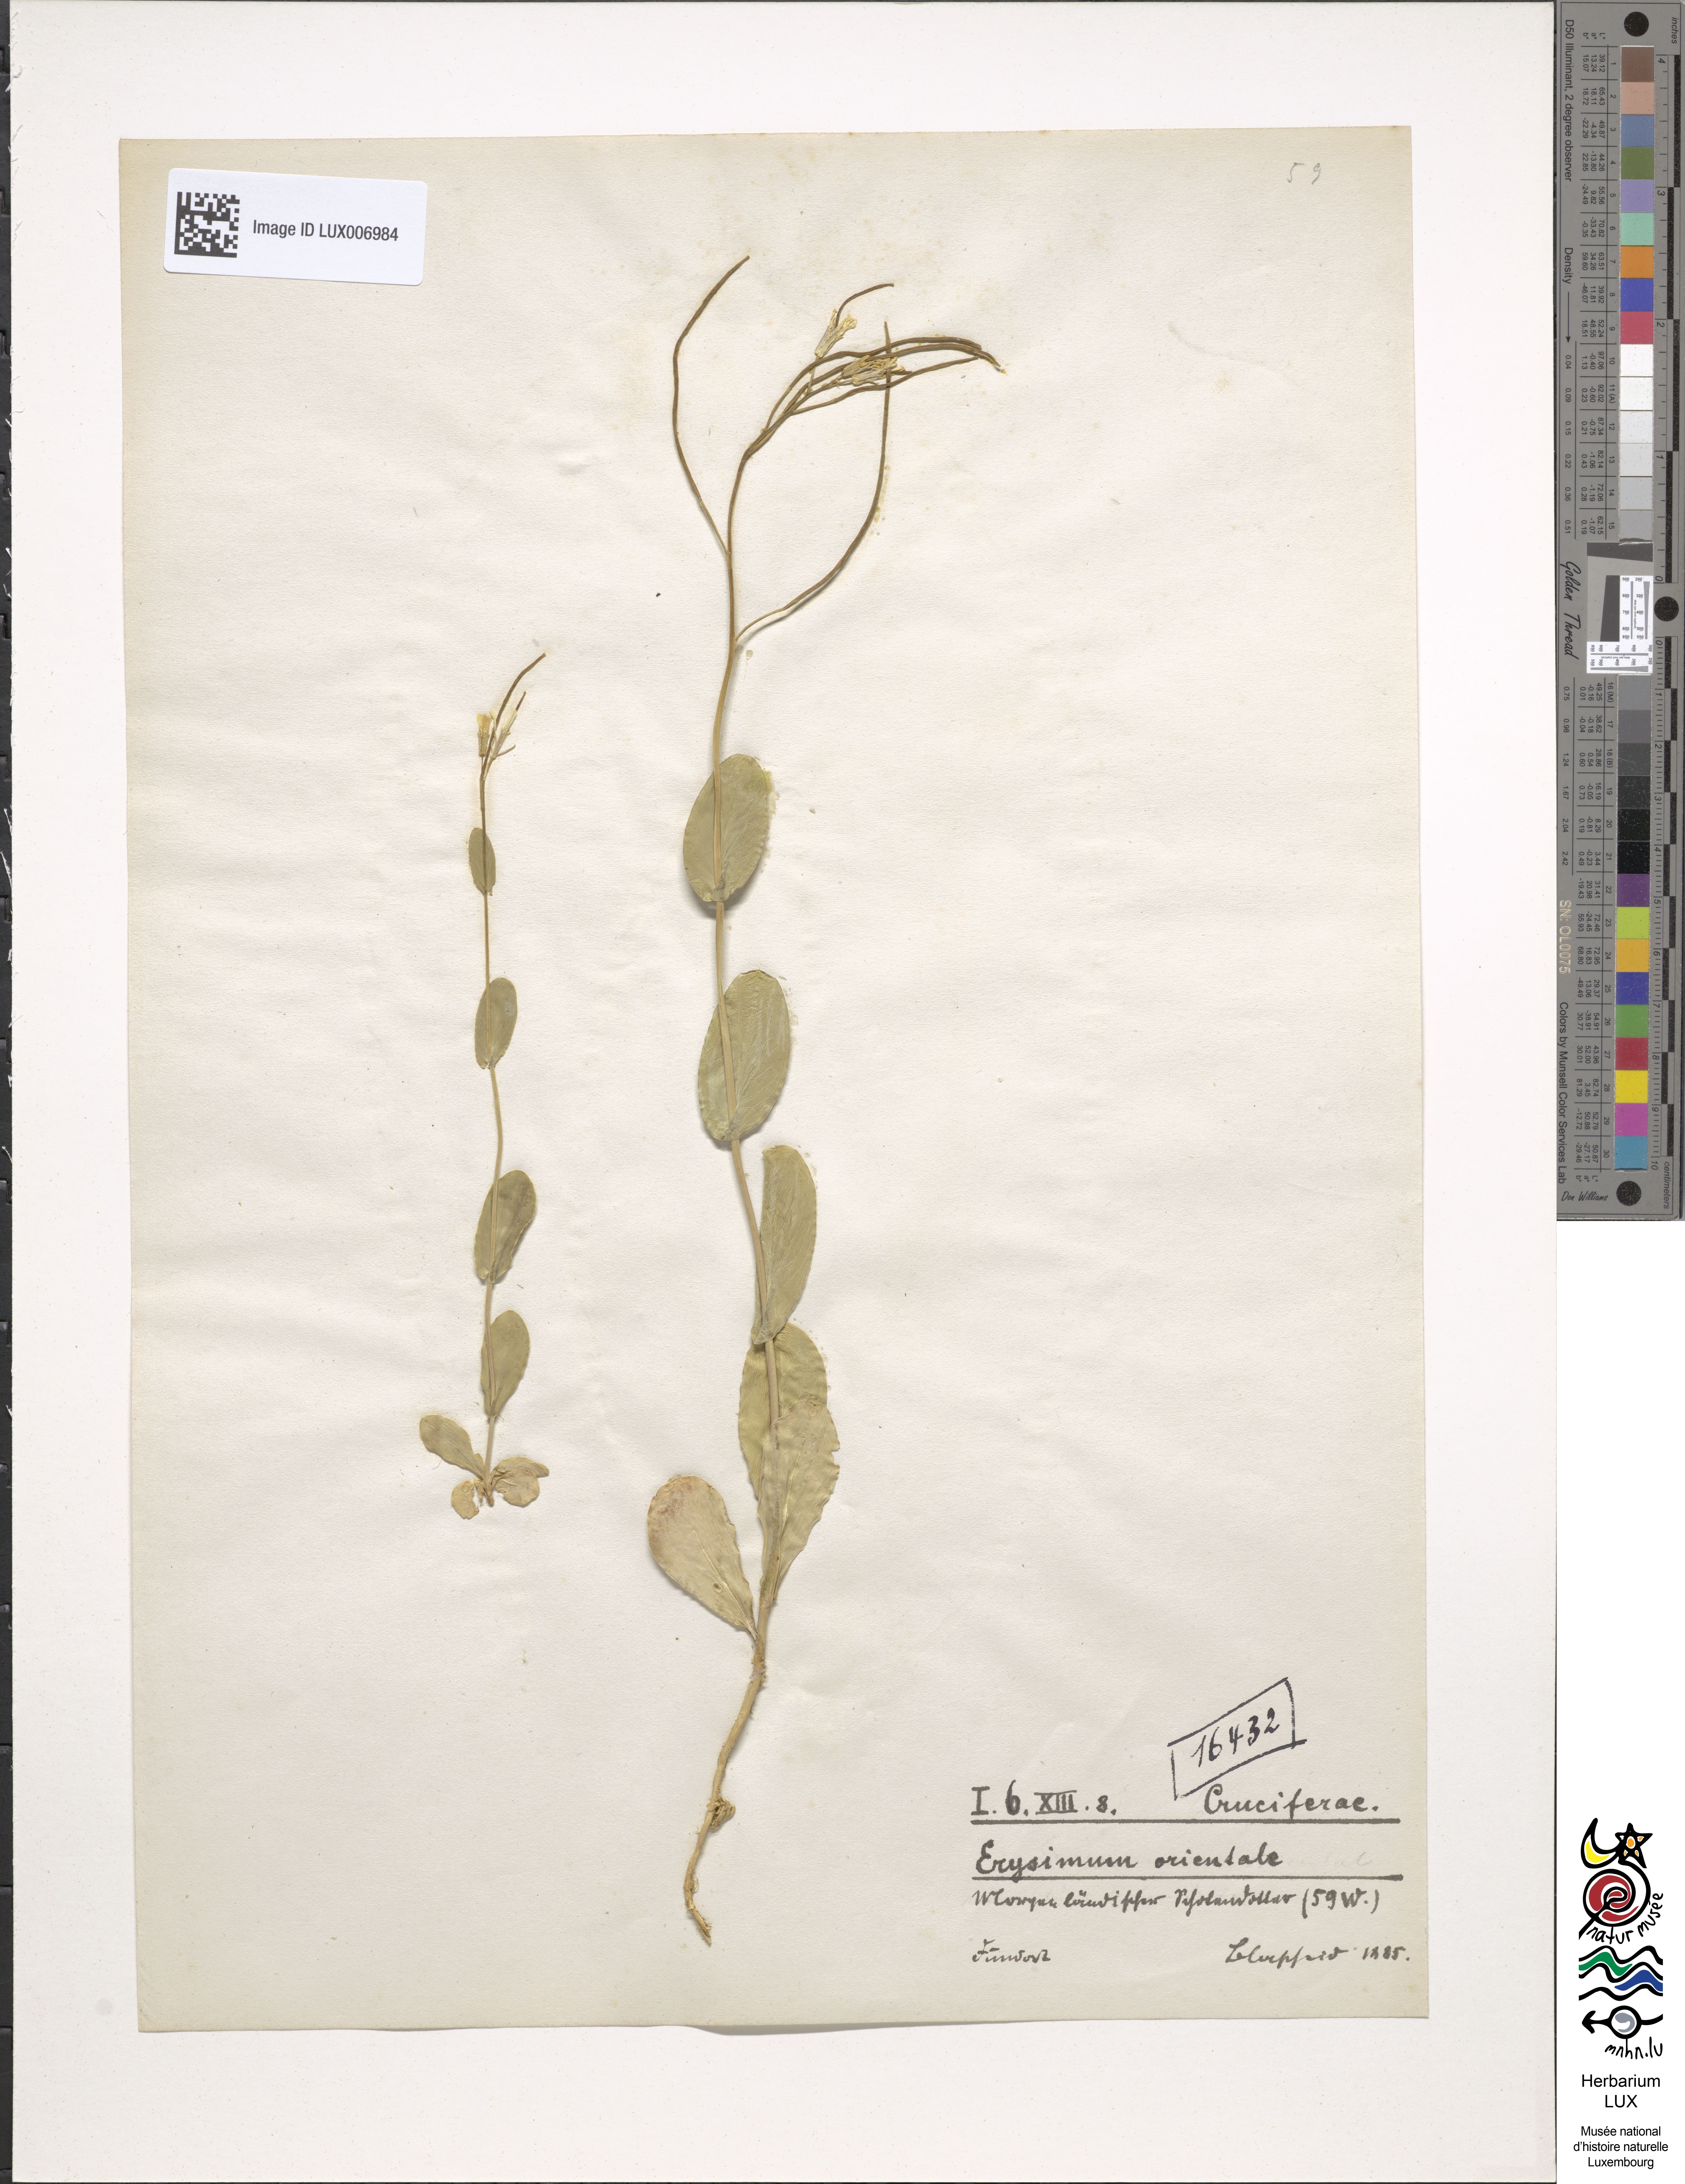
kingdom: Plantae
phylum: Tracheophyta
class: Magnoliopsida
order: Brassicales
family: Brassicaceae
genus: Conringia
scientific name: Conringia orientalis
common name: Hare's ear mustard
